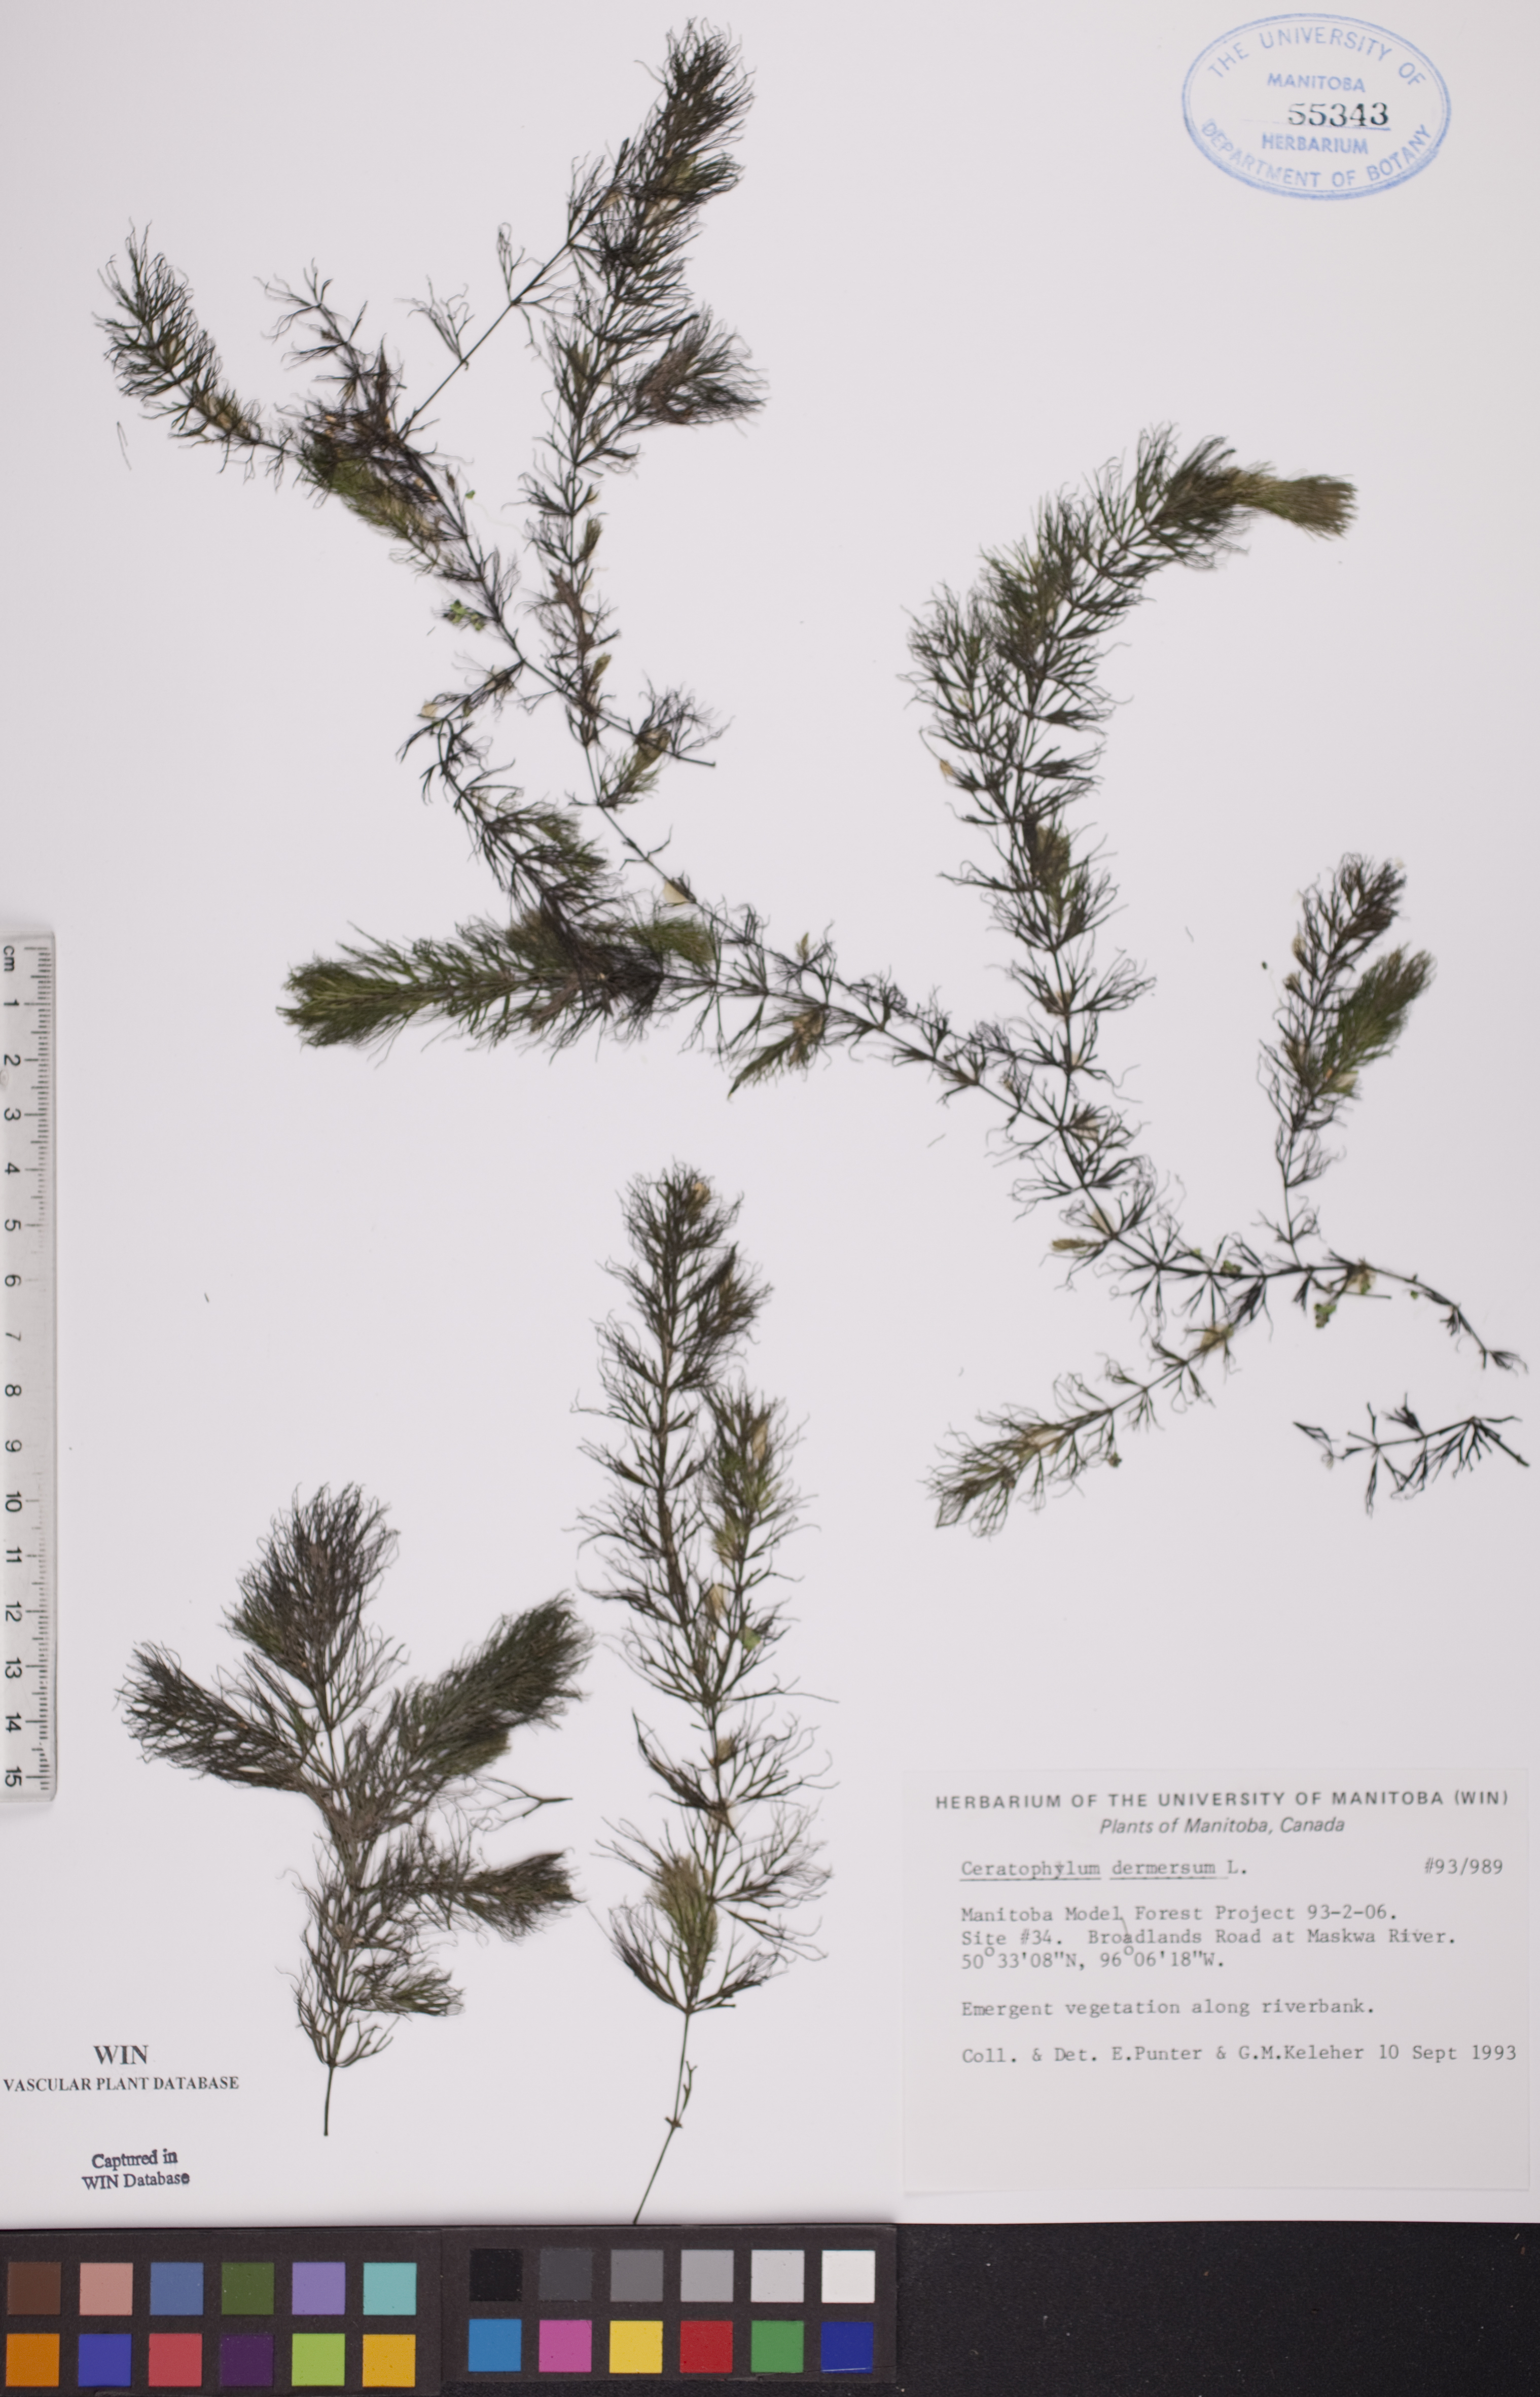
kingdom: Plantae
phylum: Tracheophyta
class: Magnoliopsida
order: Ceratophyllales
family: Ceratophyllaceae
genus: Ceratophyllum
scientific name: Ceratophyllum demersum
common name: Rigid hornwort
